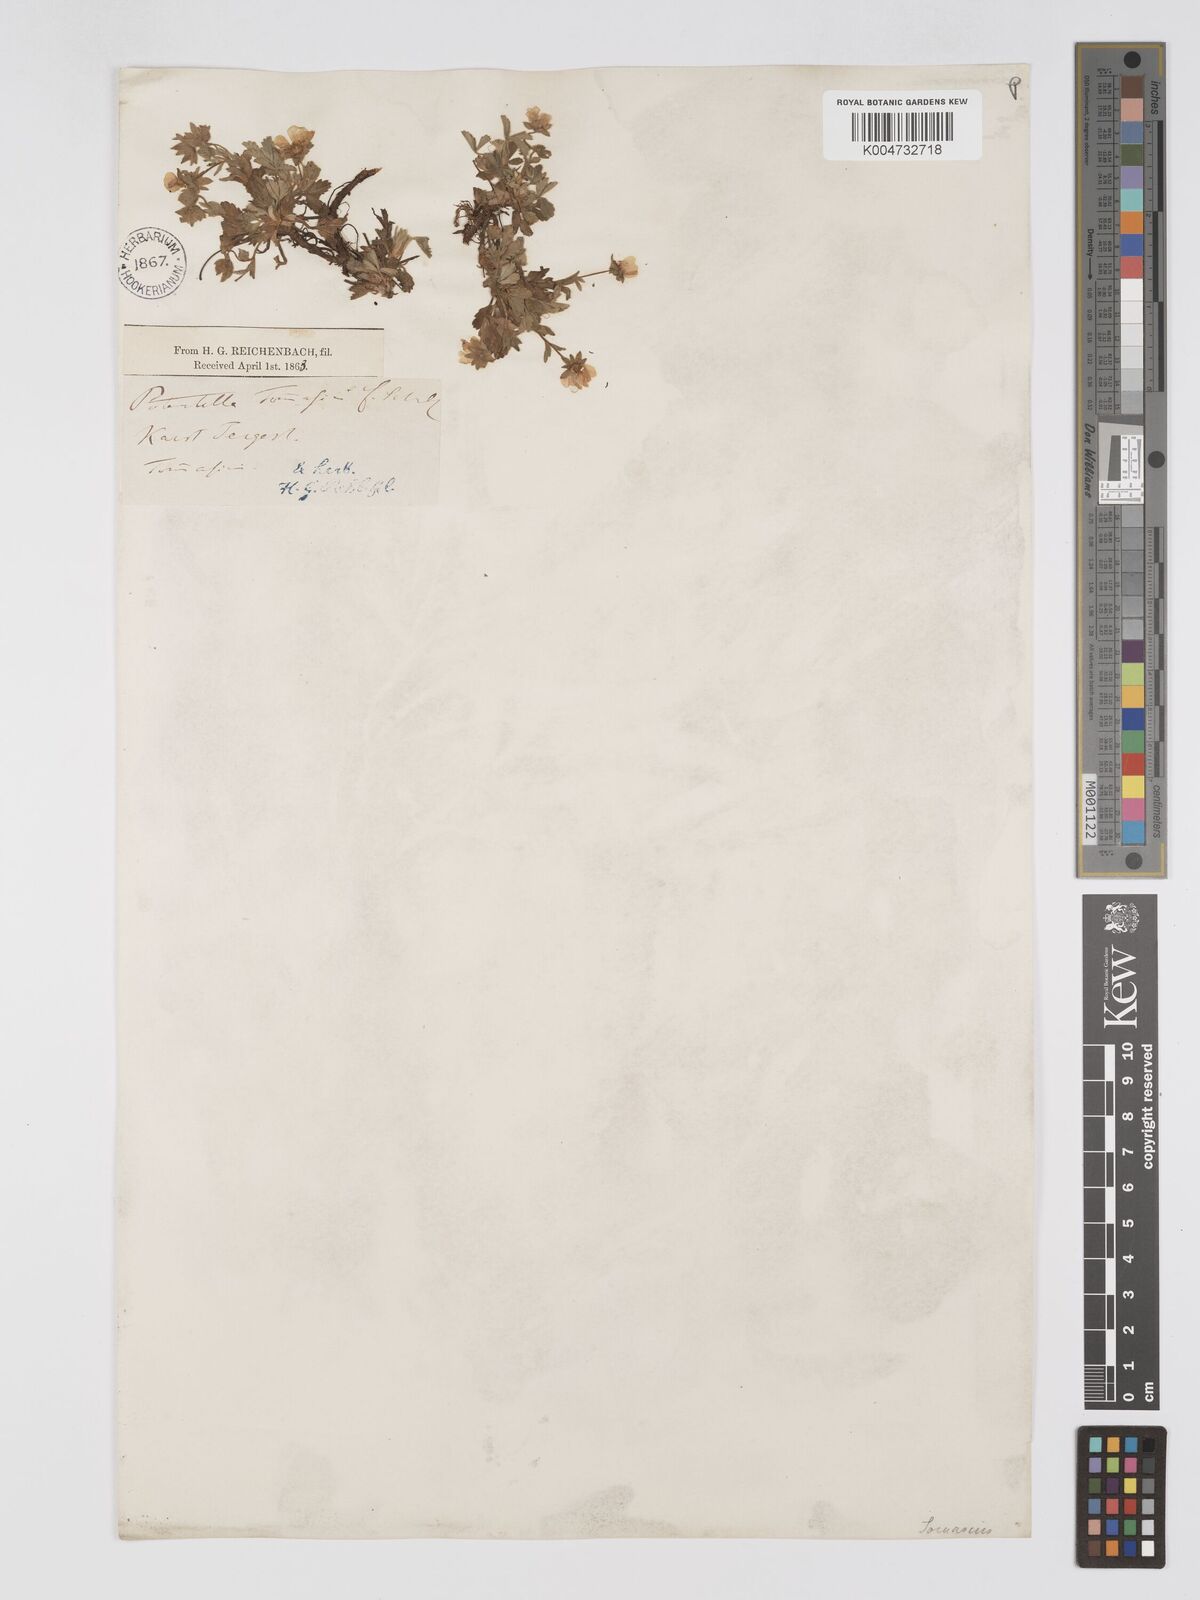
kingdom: Plantae
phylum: Tracheophyta
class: Magnoliopsida
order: Rosales
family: Rosaceae
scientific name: Rosaceae
